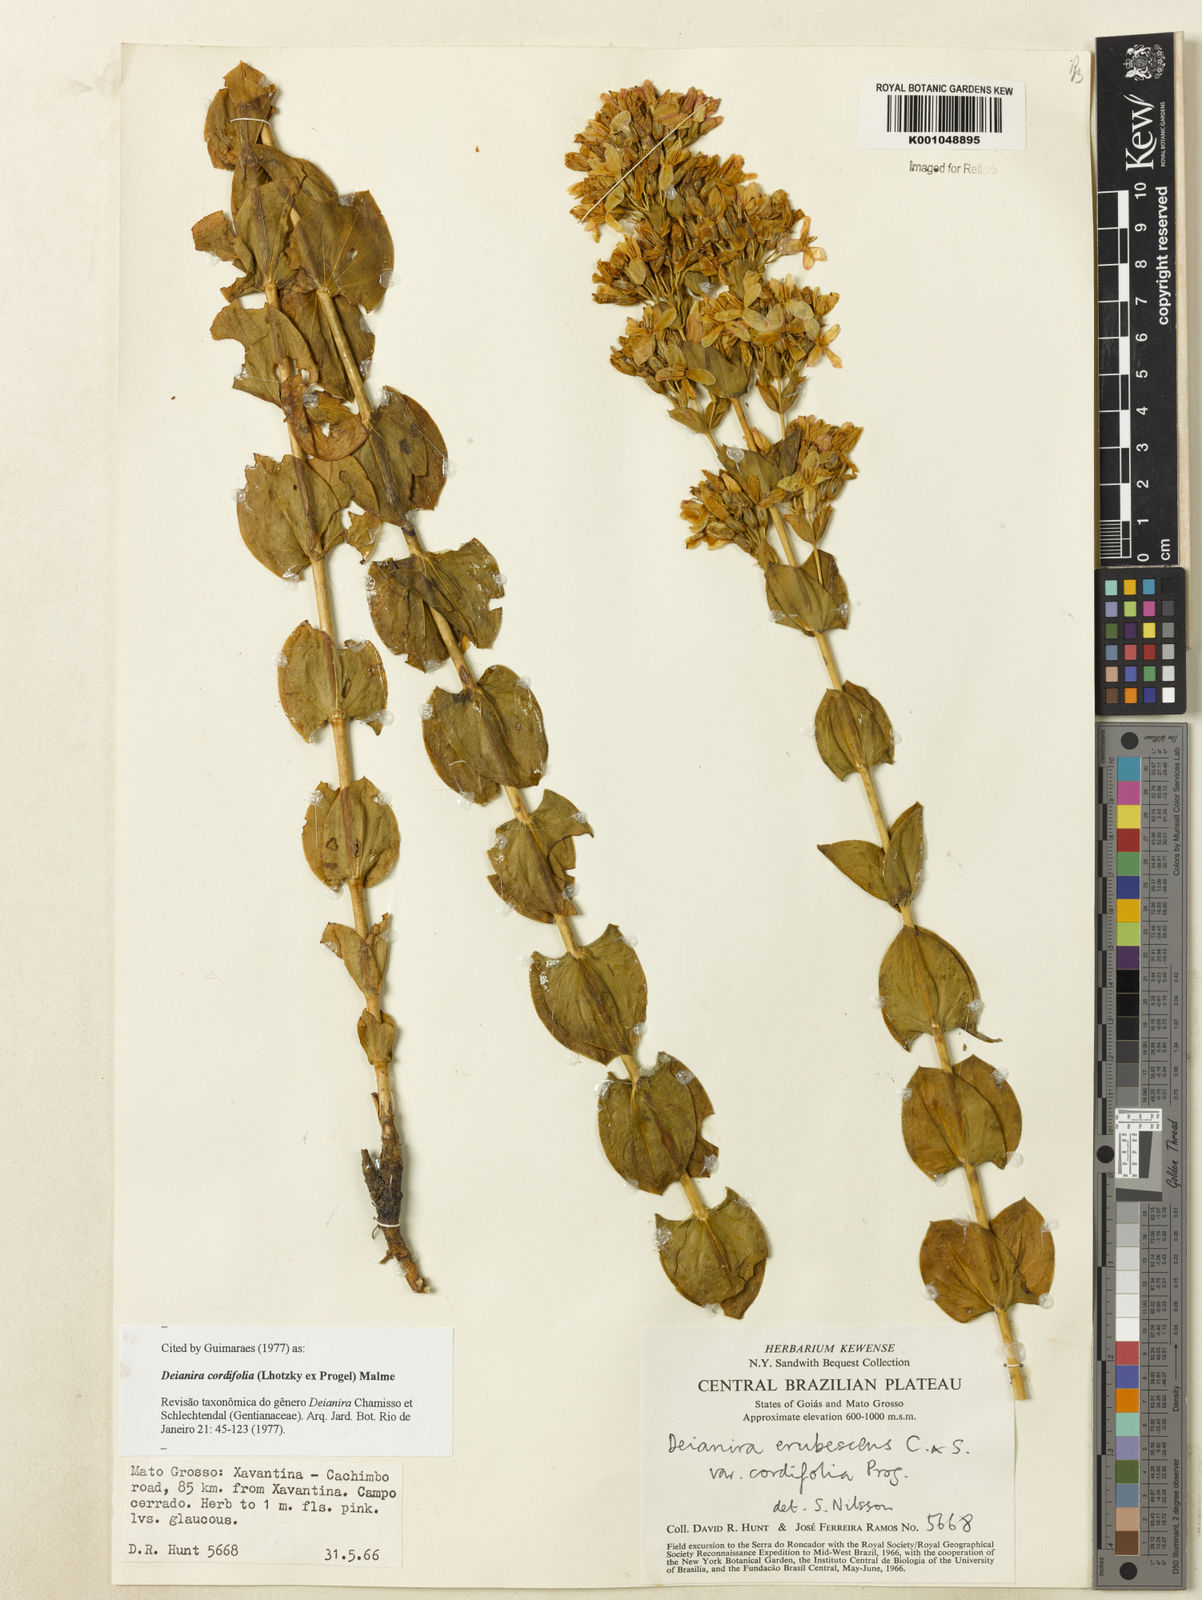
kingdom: Plantae
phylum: Tracheophyta
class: Magnoliopsida
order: Gentianales
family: Gentianaceae
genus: Deianira
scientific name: Deianira cordifolia
